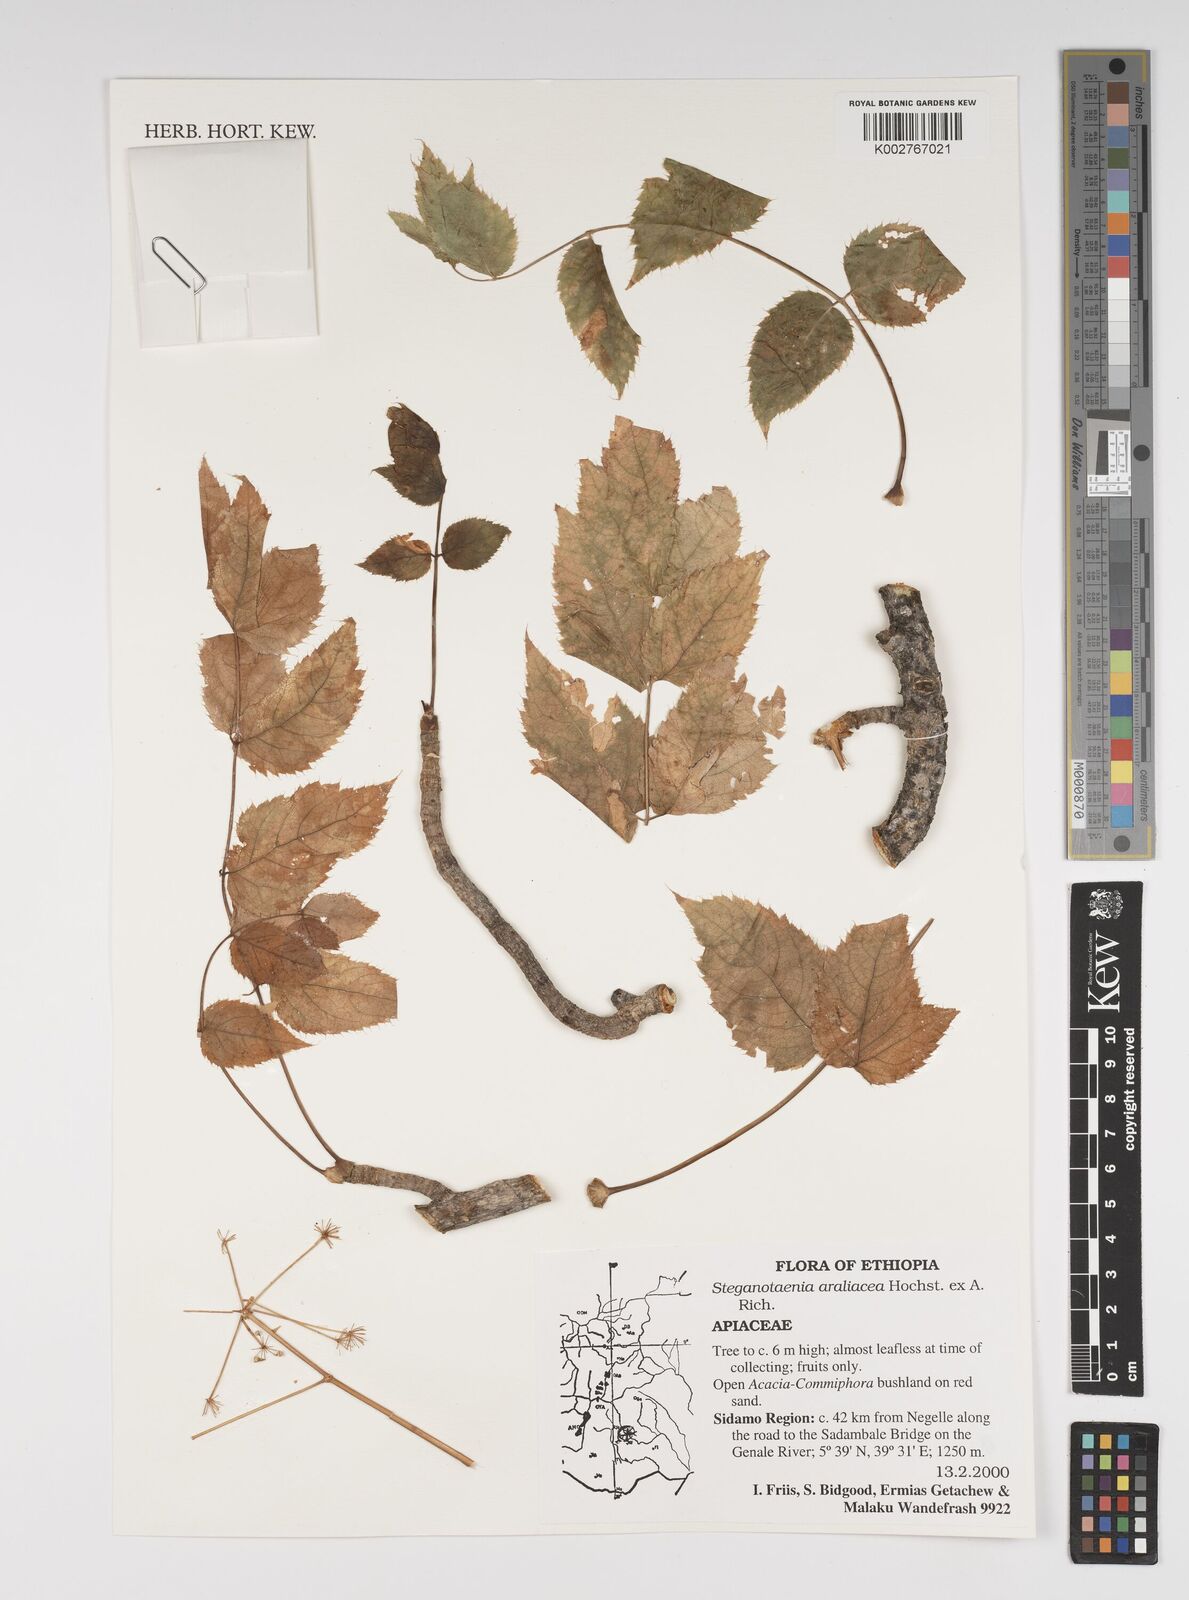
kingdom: Plantae
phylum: Tracheophyta
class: Magnoliopsida
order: Apiales
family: Apiaceae
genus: Steganotaenia
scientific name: Steganotaenia araliacea
